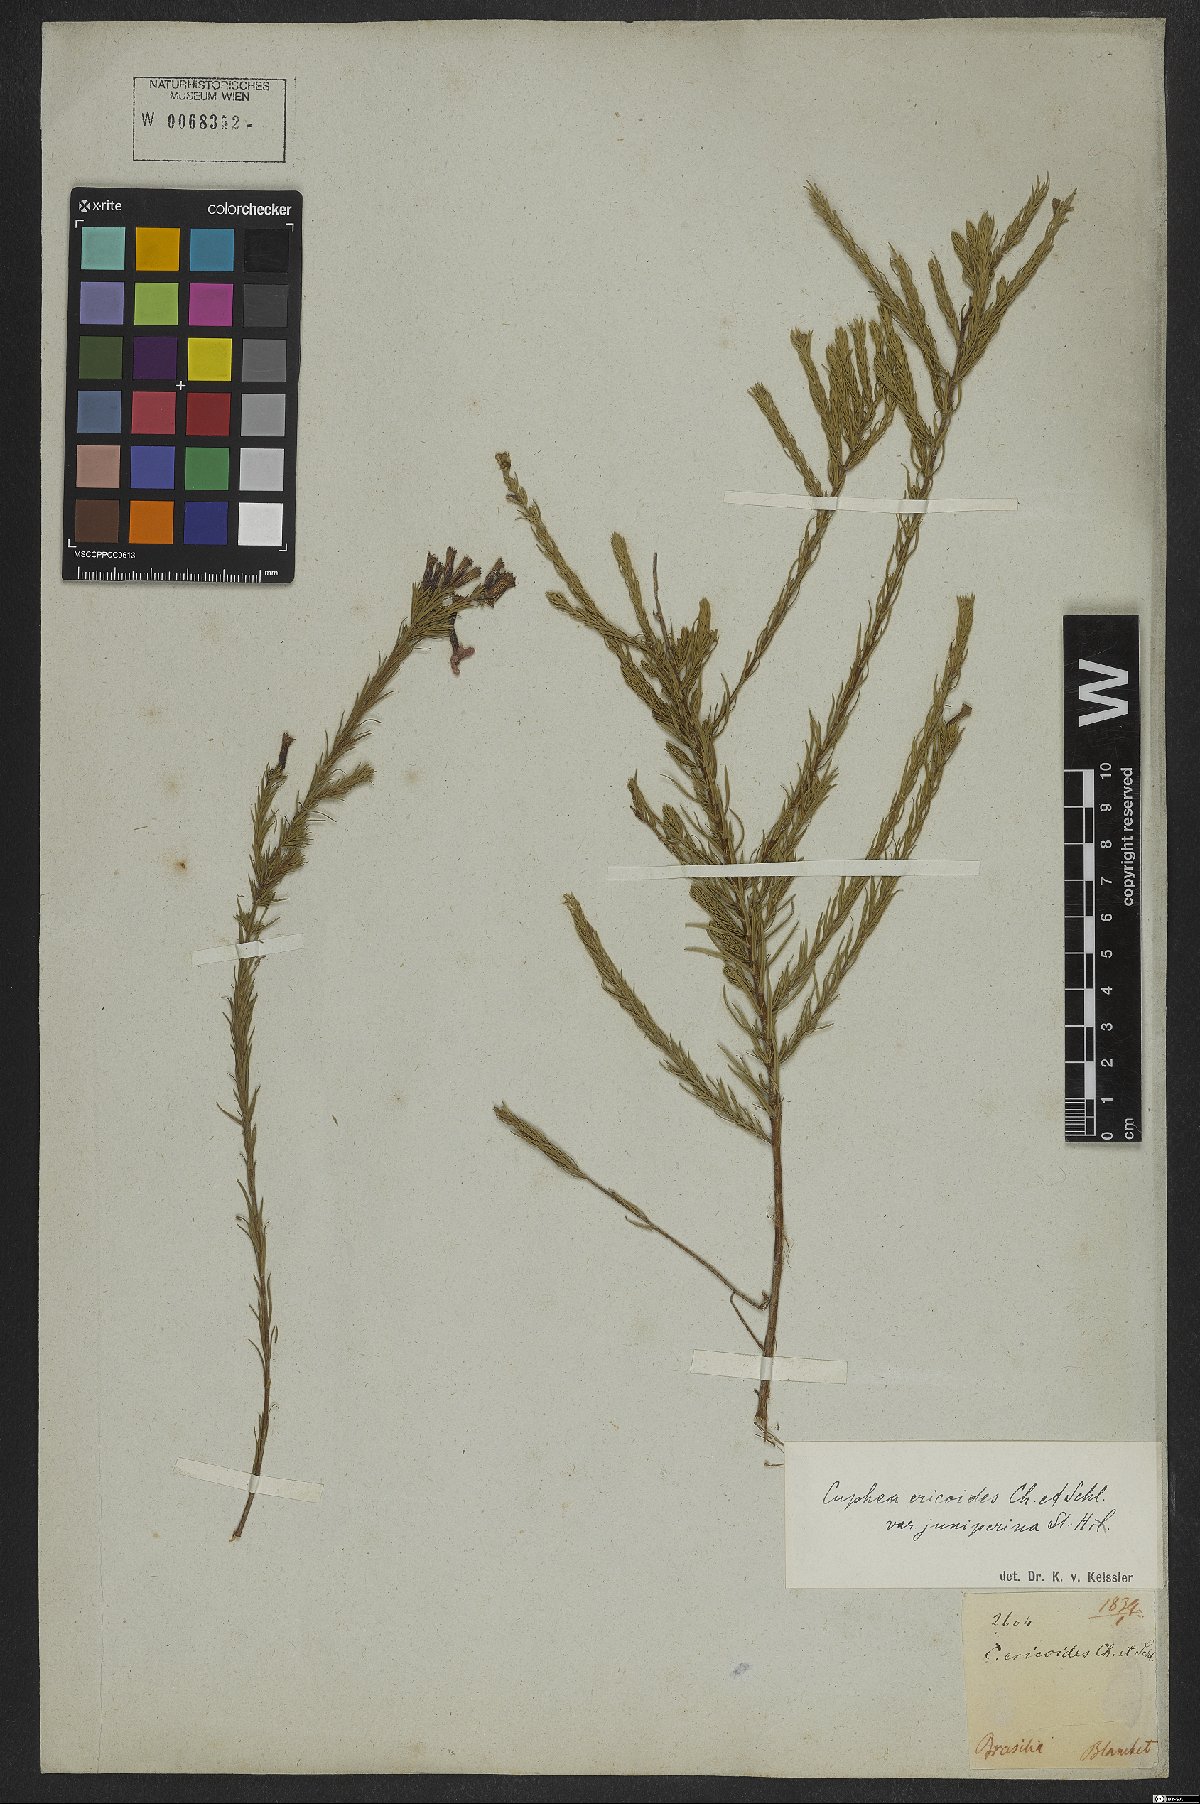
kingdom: Plantae
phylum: Tracheophyta
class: Magnoliopsida
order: Myrtales
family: Lythraceae
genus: Cuphea
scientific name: Cuphea ericoides
